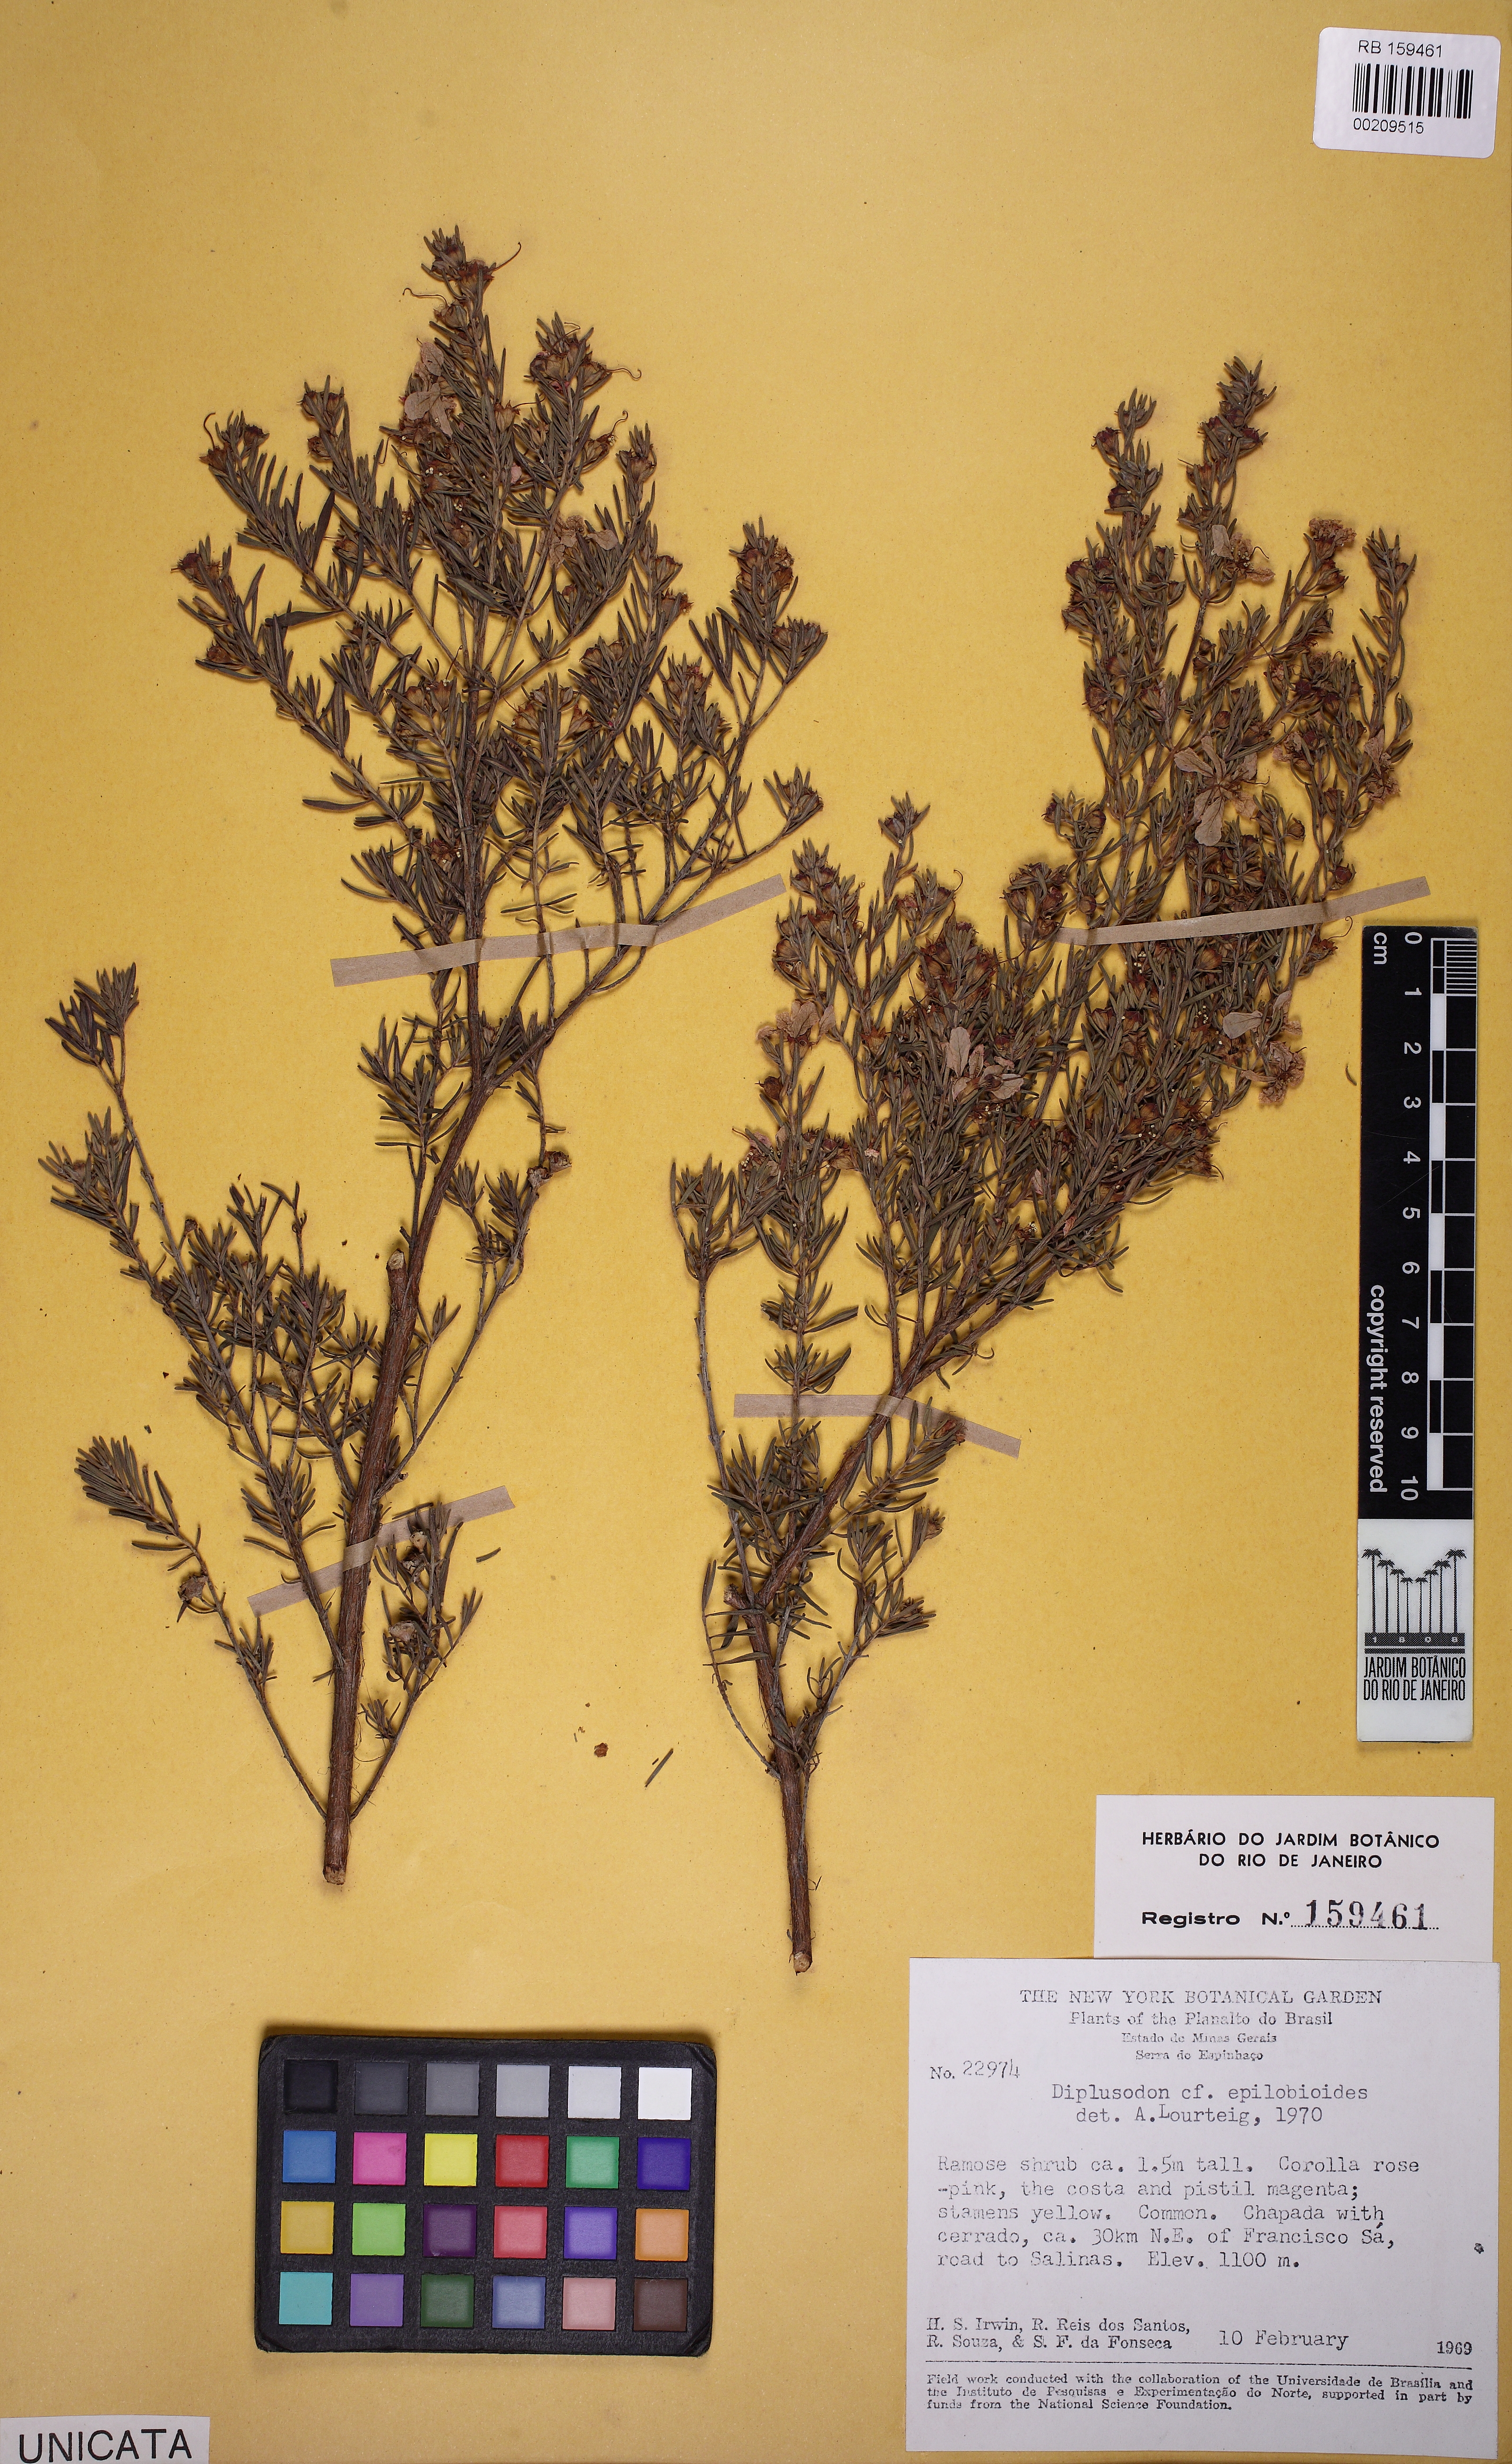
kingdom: Plantae
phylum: Tracheophyta
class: Magnoliopsida
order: Myrtales
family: Lythraceae
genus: Diplusodon
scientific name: Diplusodon epilobioides
